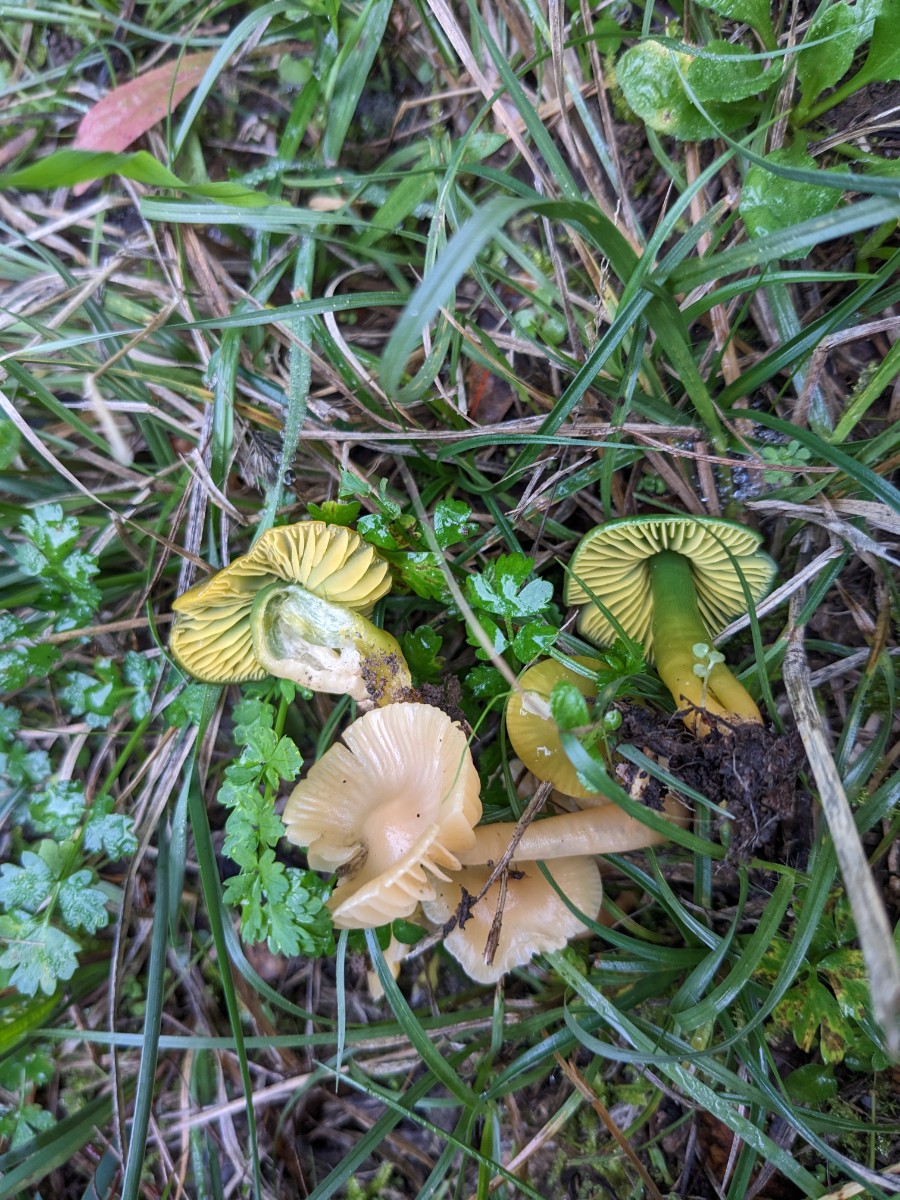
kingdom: Fungi
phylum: Basidiomycota
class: Agaricomycetes
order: Agaricales
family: Hygrophoraceae
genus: Gliophorus
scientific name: Gliophorus psittacinus
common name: papegøje-vokshat
